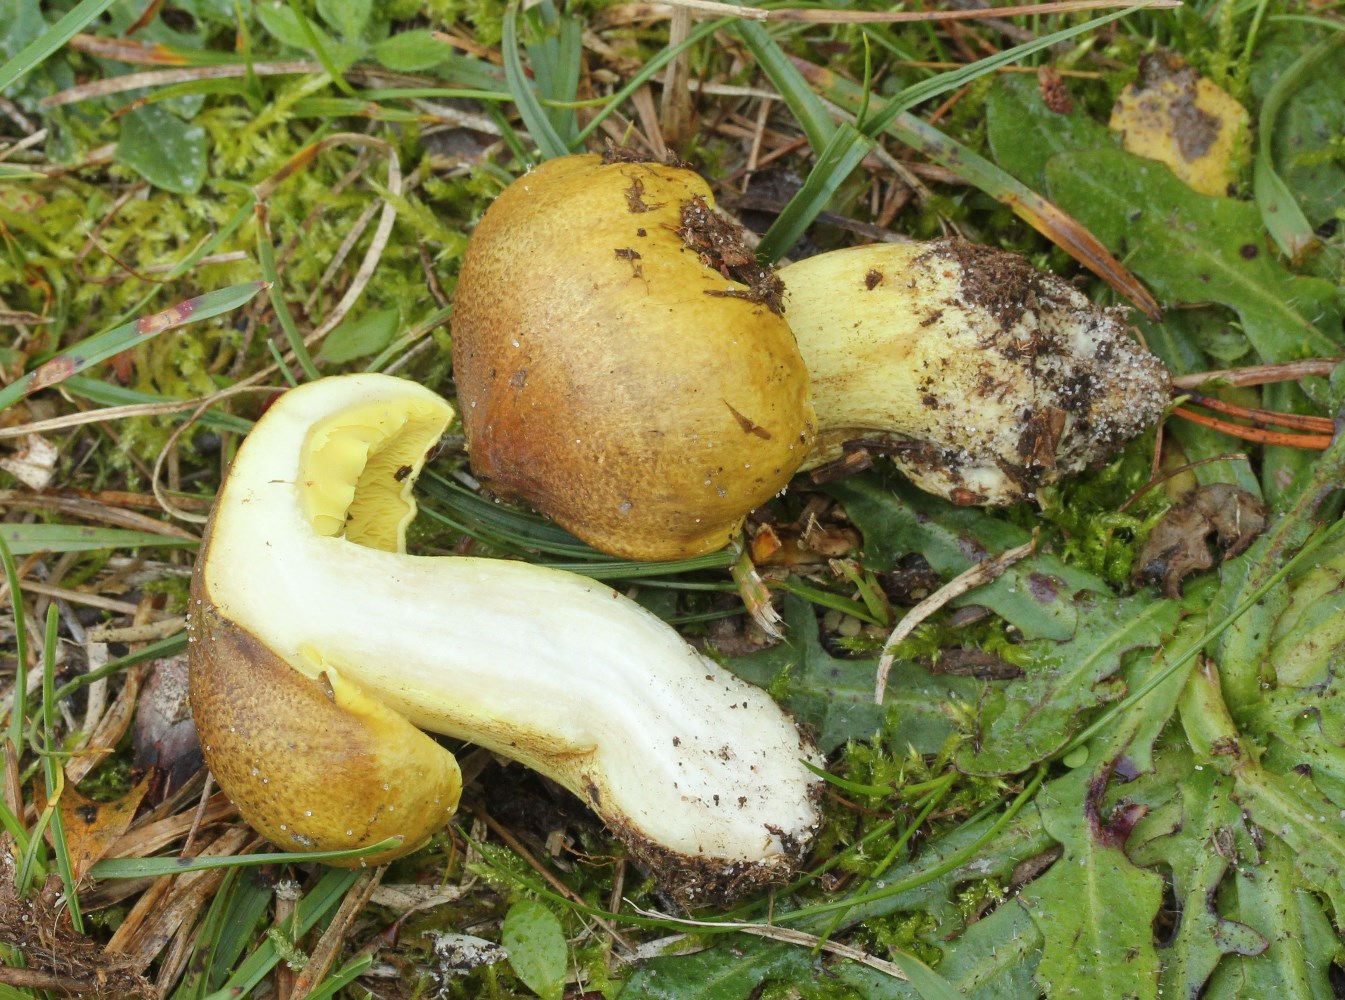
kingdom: Fungi
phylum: Basidiomycota
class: Agaricomycetes
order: Agaricales
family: Tricholomataceae
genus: Tricholoma
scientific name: Tricholoma equestre
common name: ægte ridderhat
